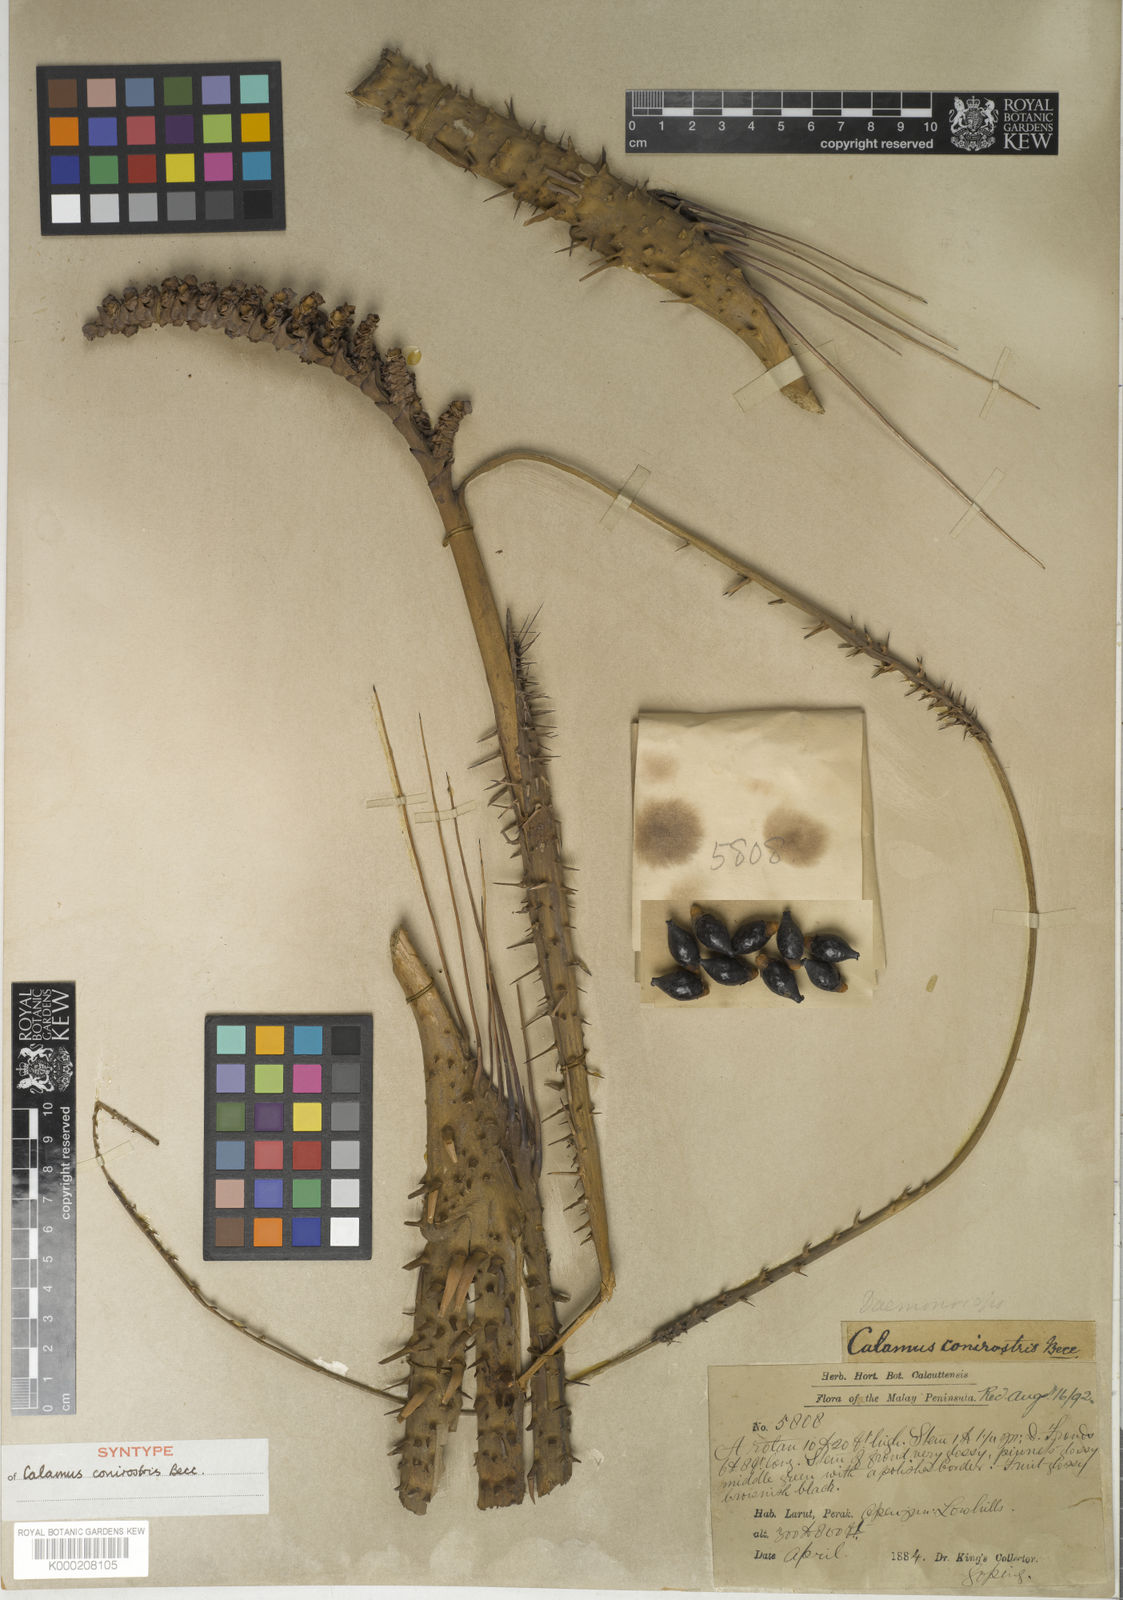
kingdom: Plantae
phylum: Tracheophyta
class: Liliopsida
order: Arecales
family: Arecaceae
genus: Calamus
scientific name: Calamus conirostris
